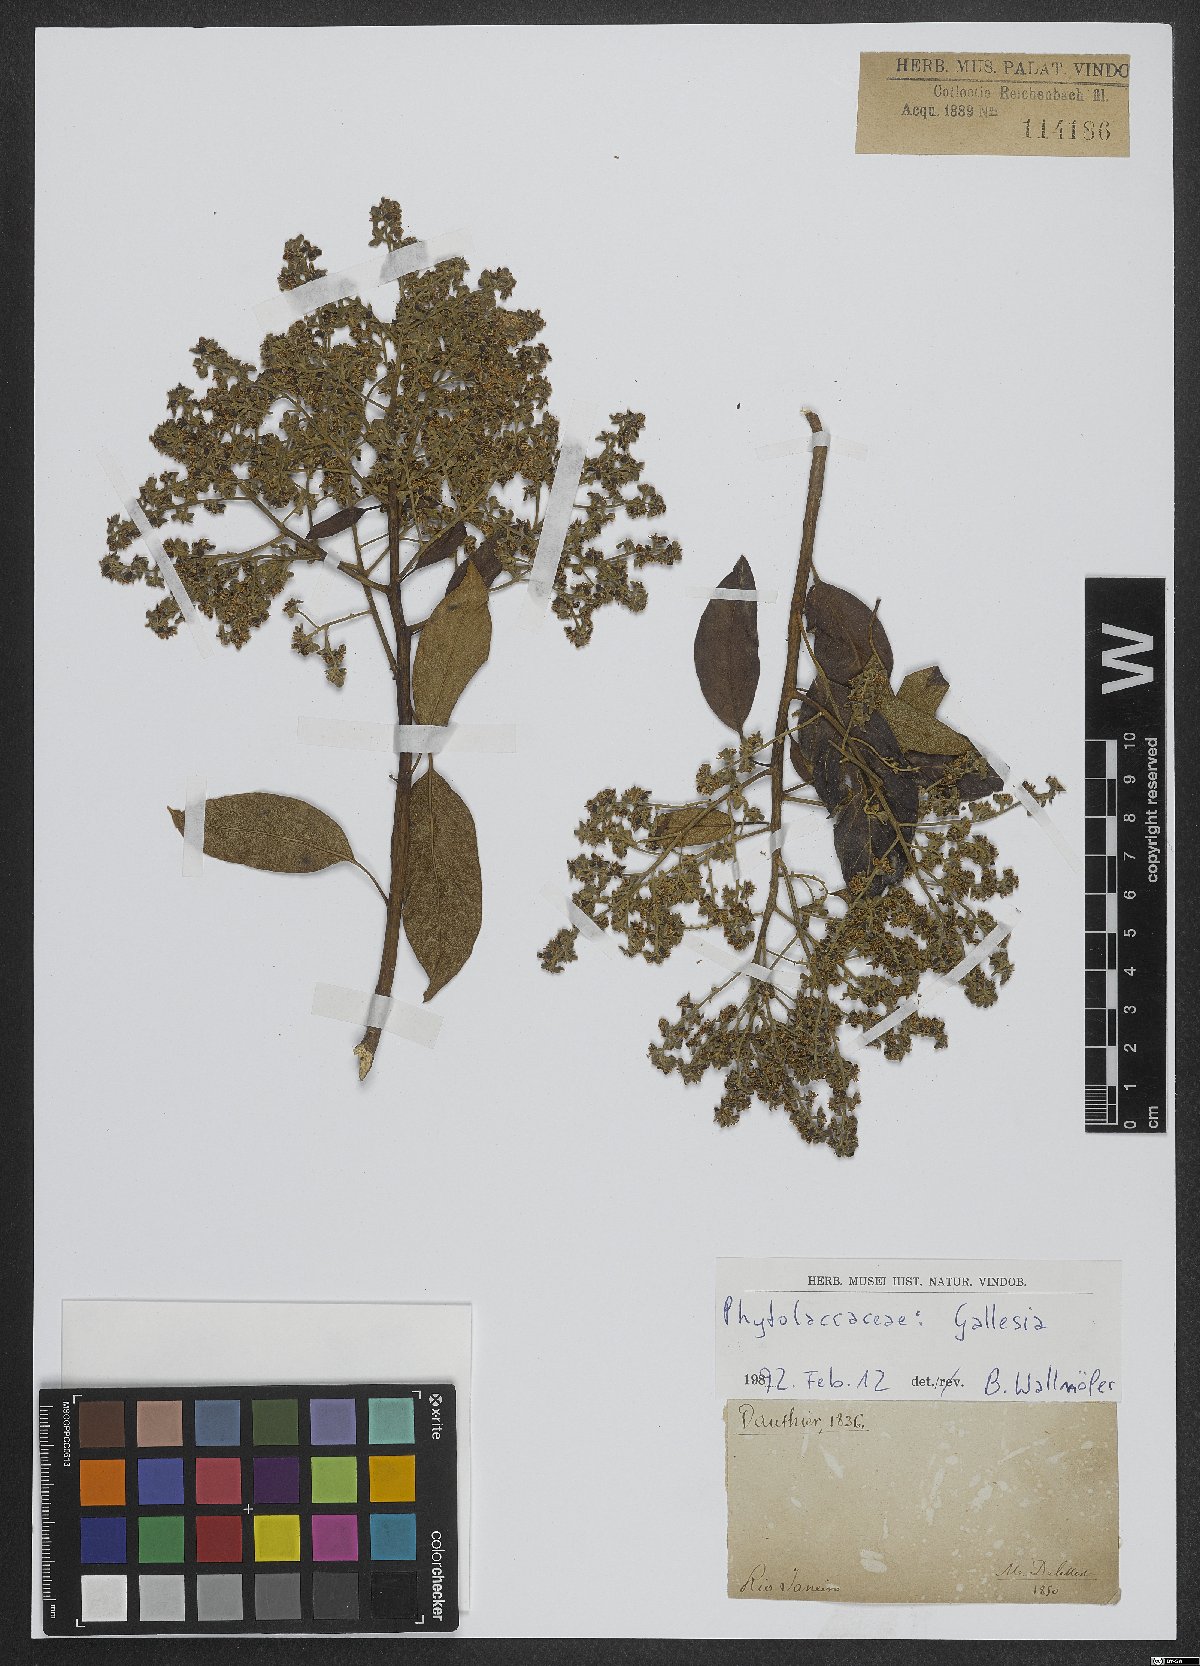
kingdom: Plantae
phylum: Tracheophyta
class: Magnoliopsida
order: Caryophyllales
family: Phytolaccaceae
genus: Gallesia
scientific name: Gallesia
